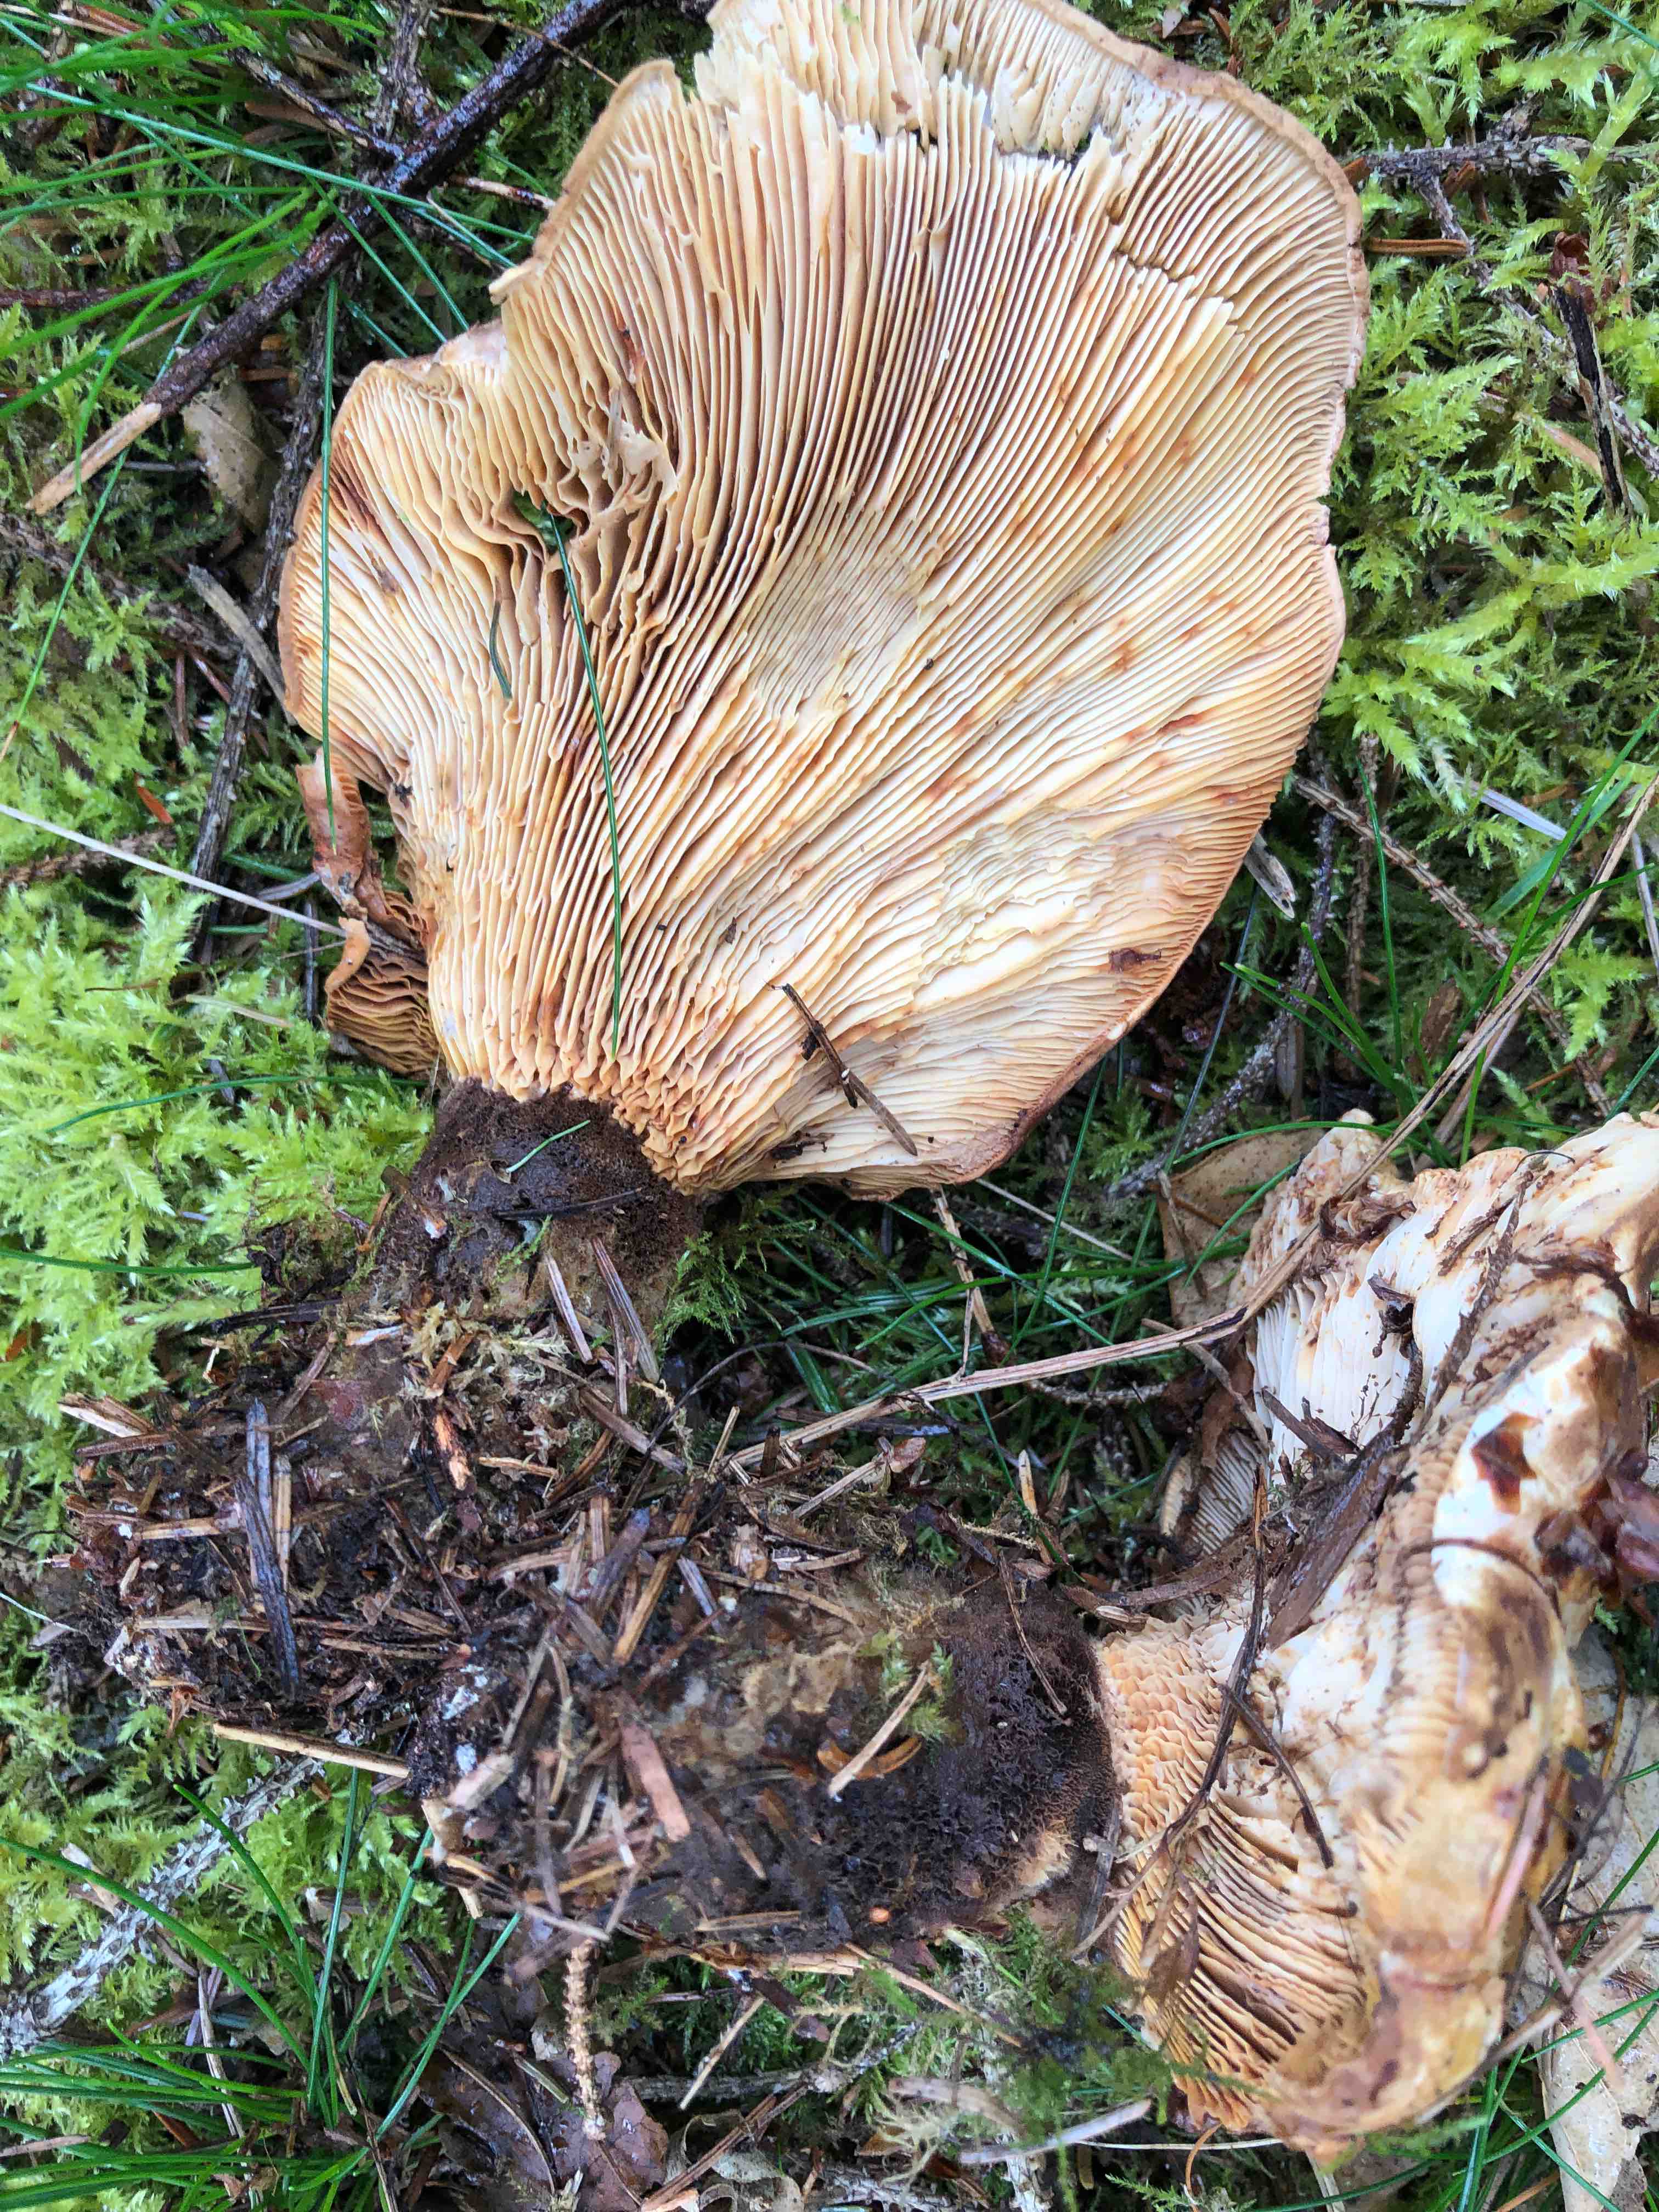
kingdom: Fungi
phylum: Basidiomycota
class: Agaricomycetes
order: Boletales
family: Tapinellaceae
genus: Tapinella
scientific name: Tapinella atrotomentosa
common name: sortfiltet viftesvamp
